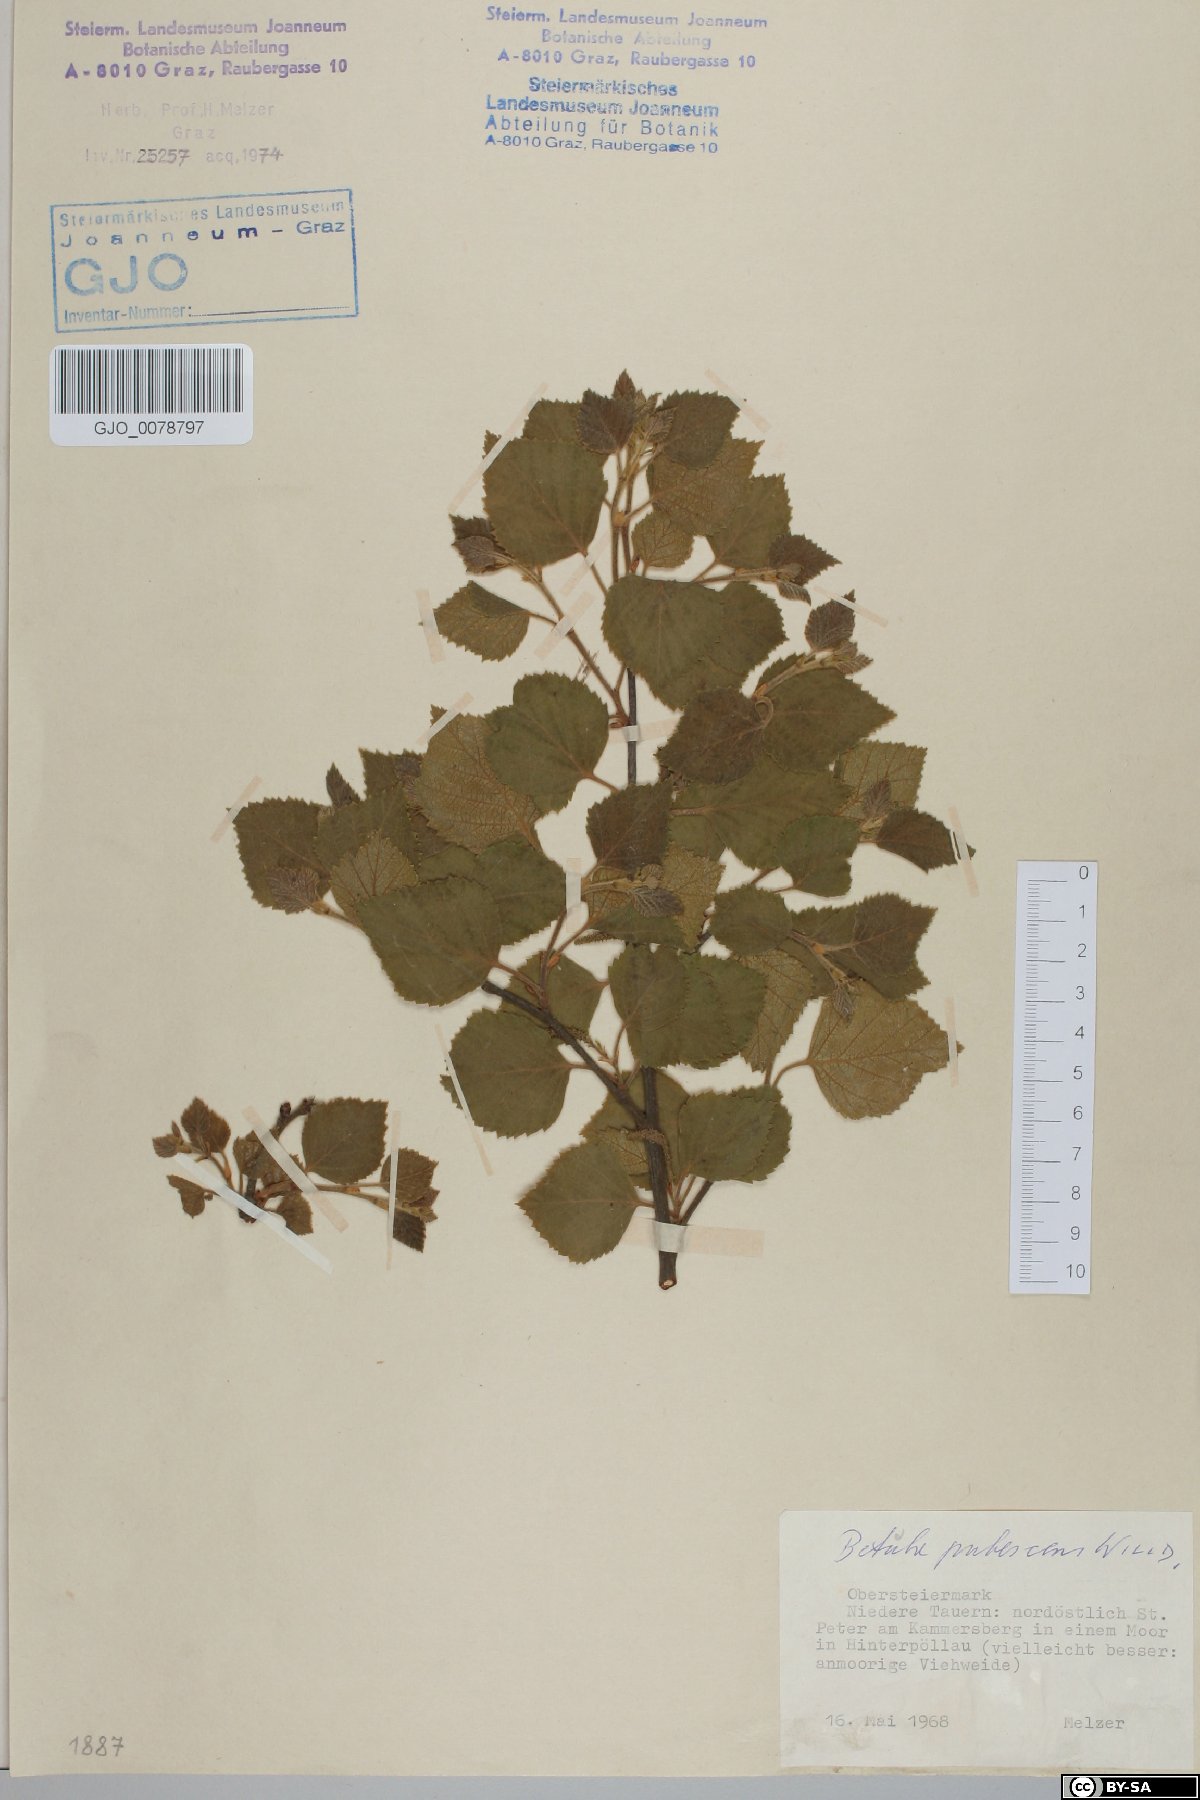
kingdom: Plantae
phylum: Tracheophyta
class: Magnoliopsida
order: Fagales
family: Betulaceae
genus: Betula
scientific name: Betula pubescens
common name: Downy birch
